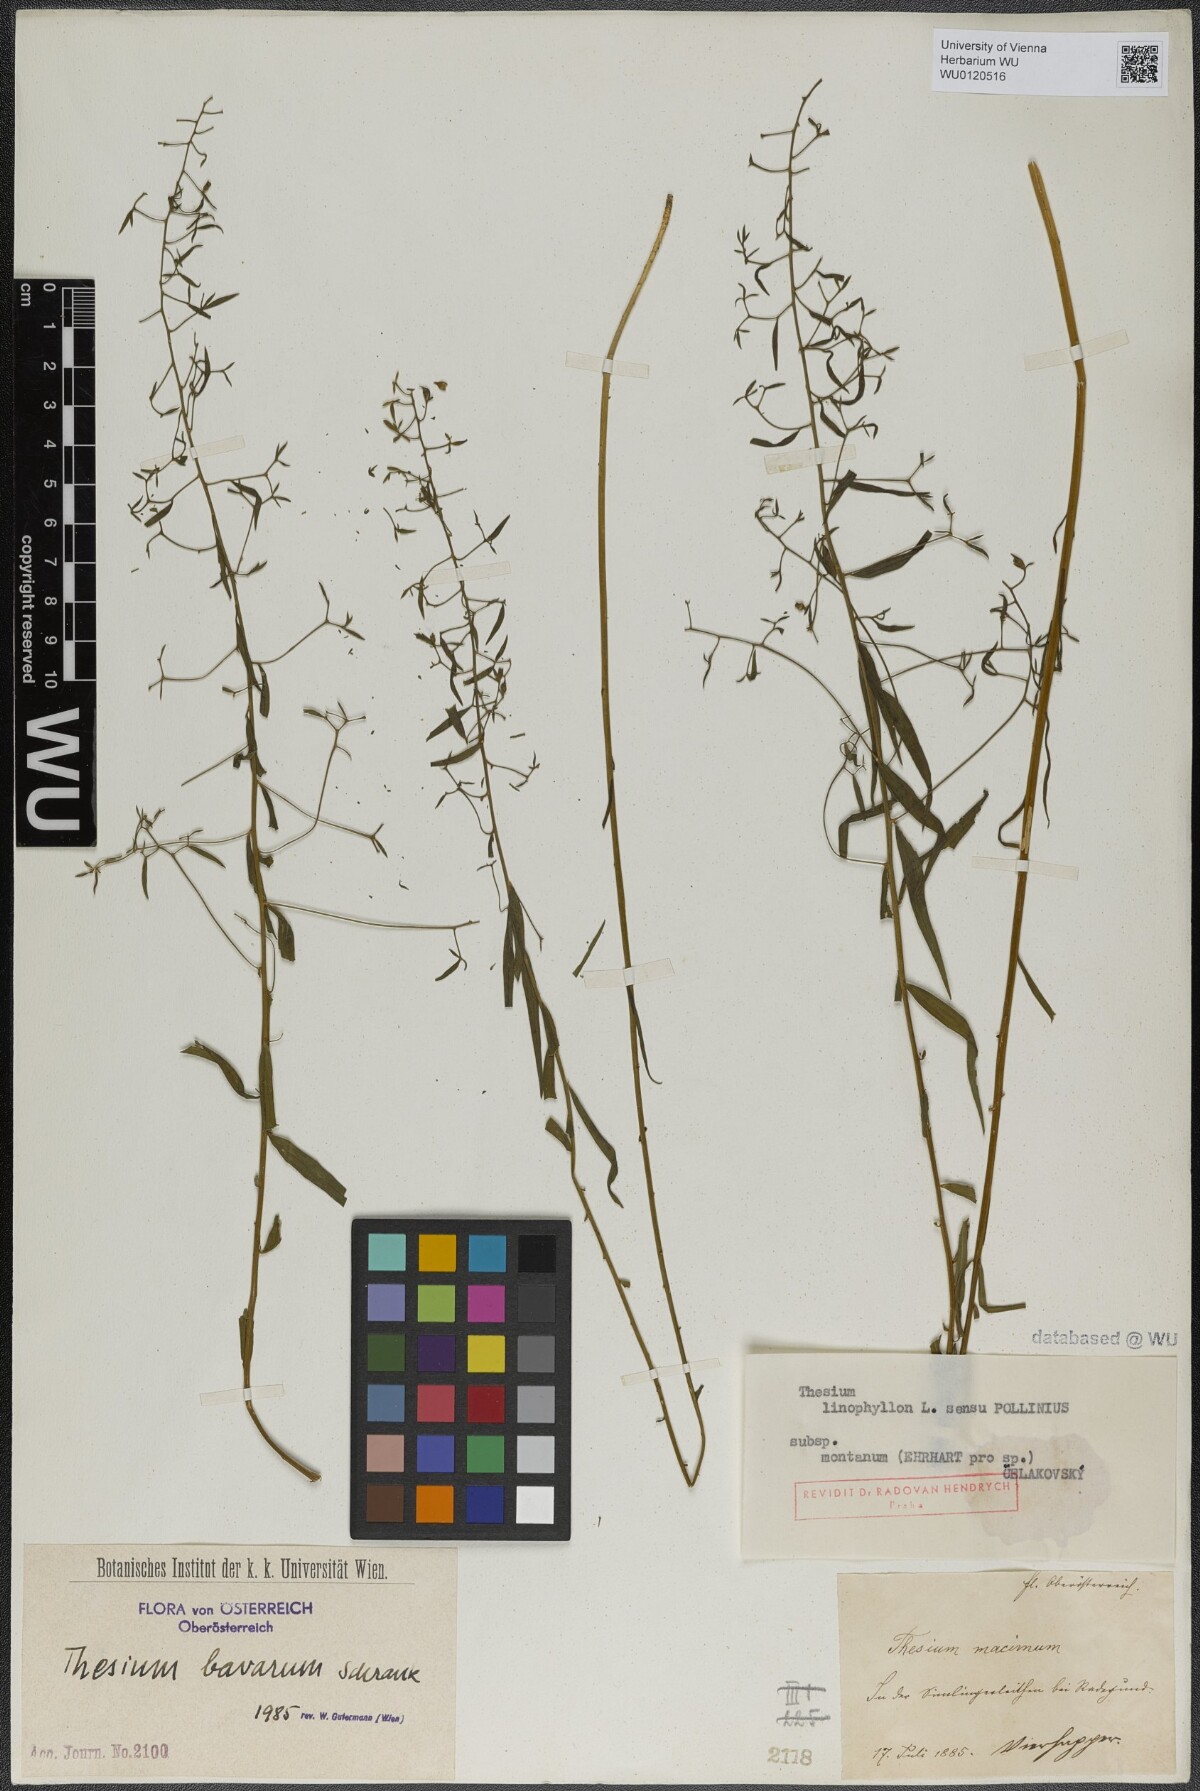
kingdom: Plantae
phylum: Tracheophyta
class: Magnoliopsida
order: Santalales
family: Thesiaceae
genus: Thesium
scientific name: Thesium bavarum
